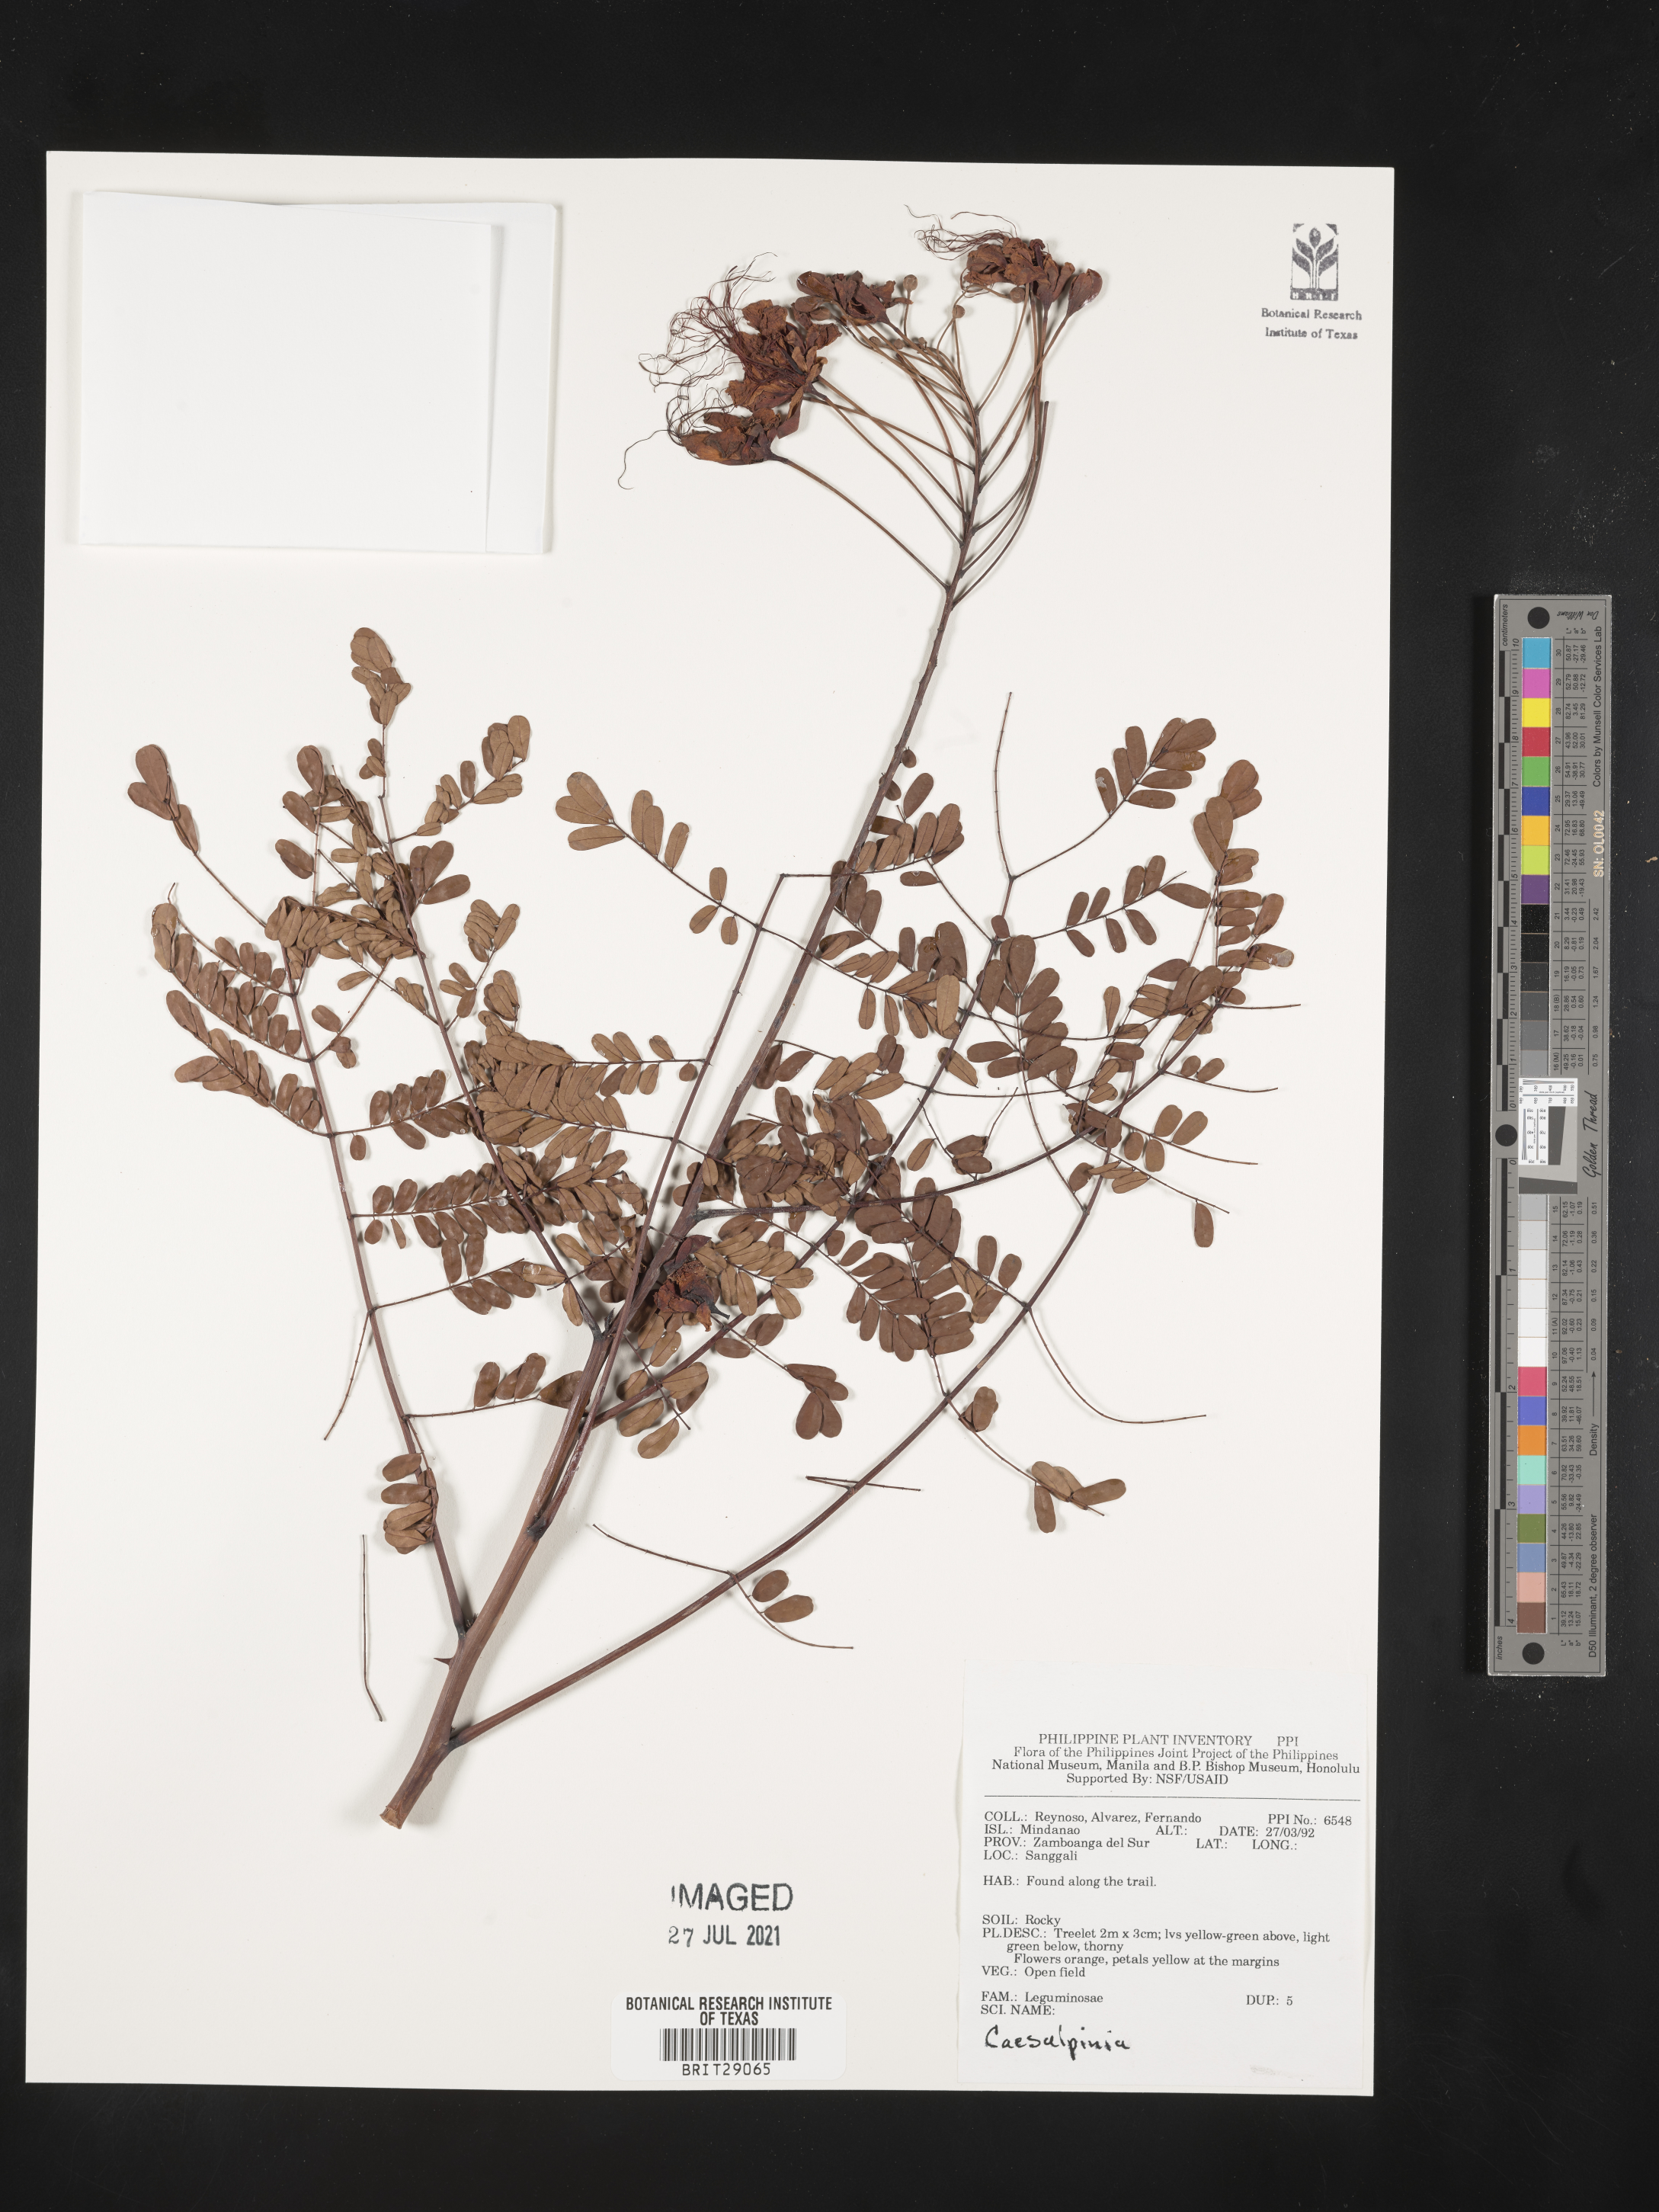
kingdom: Plantae
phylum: Tracheophyta
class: Magnoliopsida
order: Fabales
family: Fabaceae
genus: Caesalpinia
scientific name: Caesalpinia
